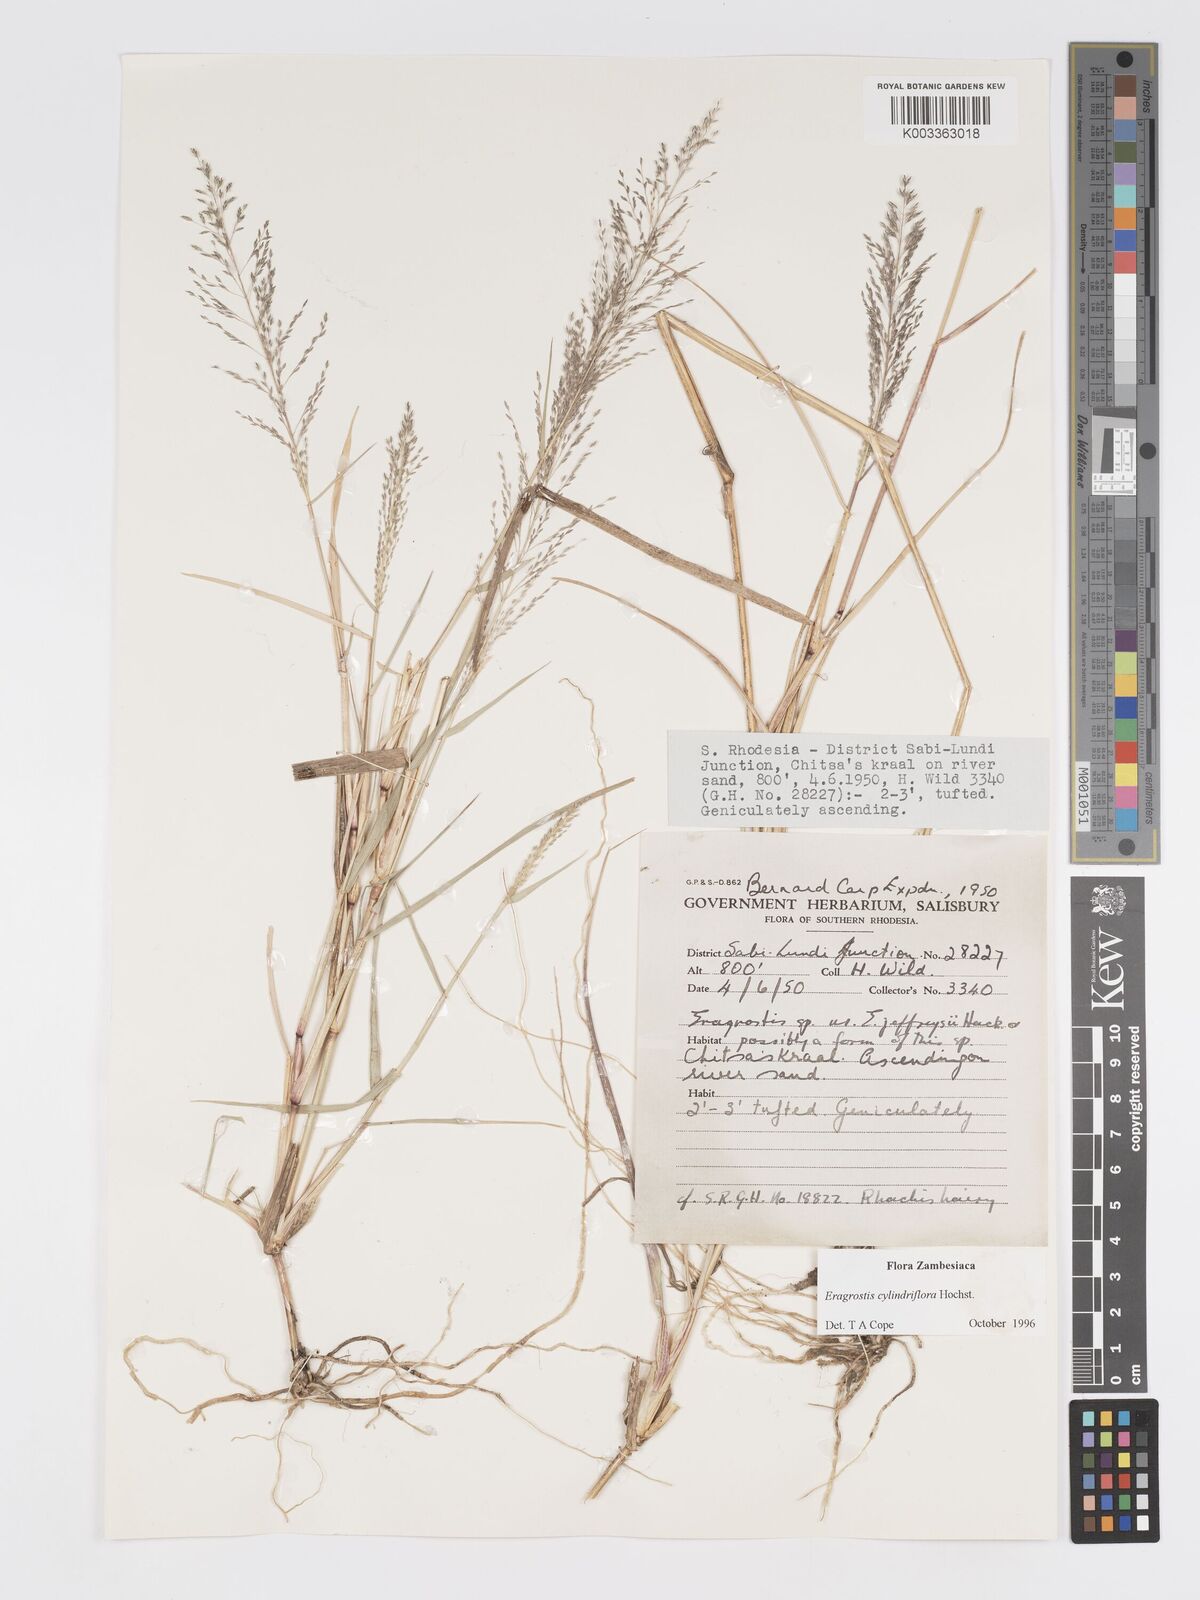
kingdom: Plantae
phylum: Tracheophyta
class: Liliopsida
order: Poales
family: Poaceae
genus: Eragrostis
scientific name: Eragrostis cylindriflora
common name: Cylinderflower lovegrass
